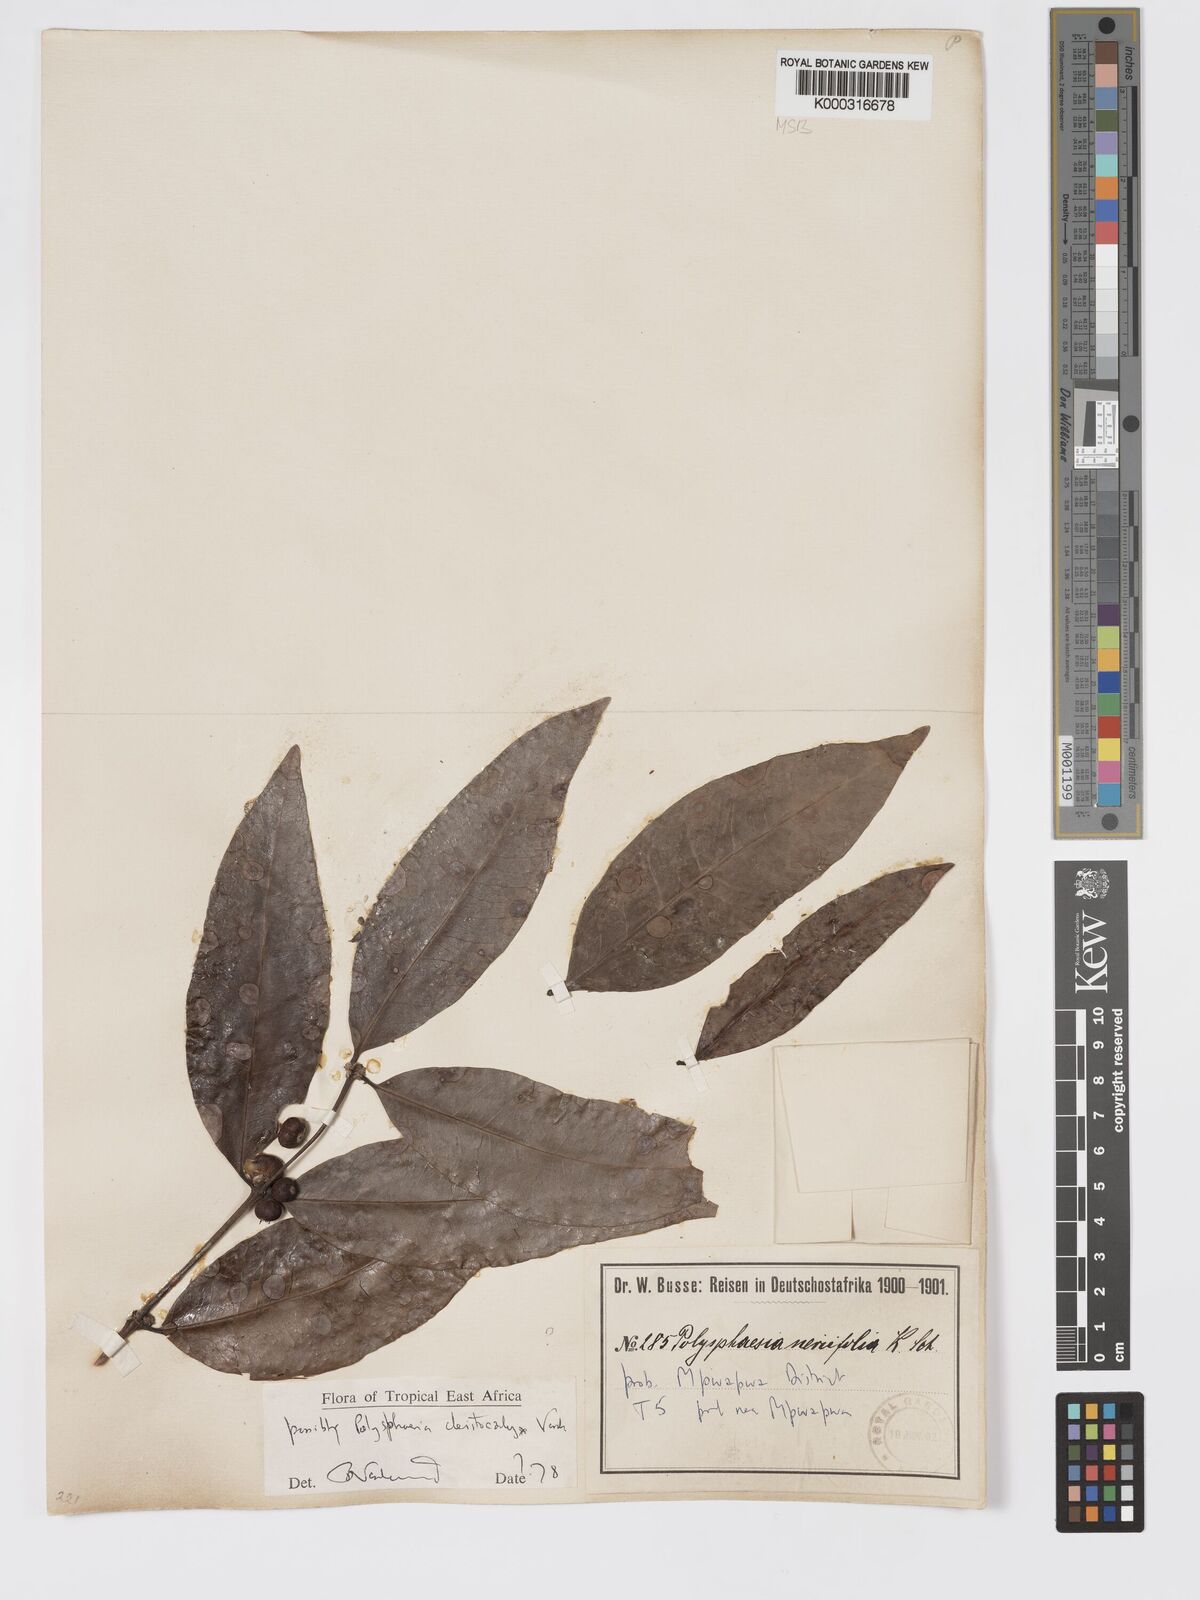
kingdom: Plantae
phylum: Tracheophyta
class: Magnoliopsida
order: Gentianales
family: Rubiaceae
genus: Polysphaeria
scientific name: Polysphaeria cleistocalyx
